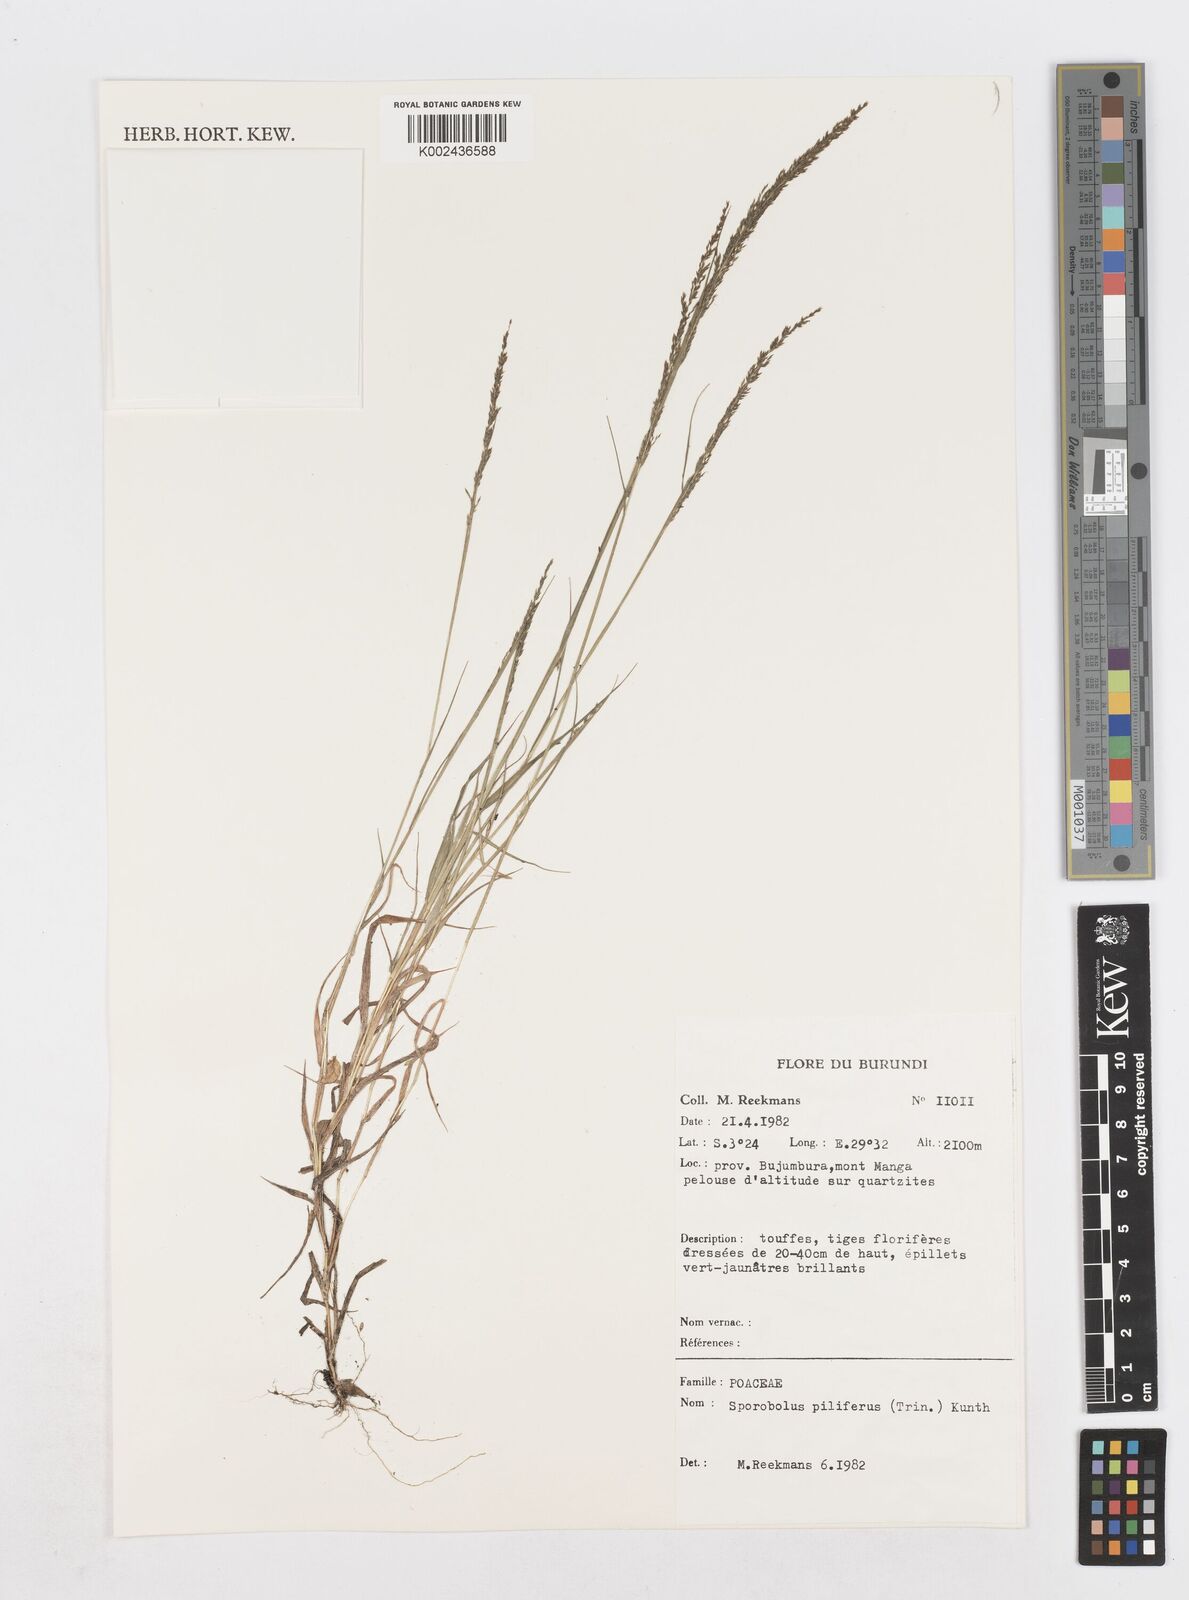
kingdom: Plantae
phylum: Tracheophyta
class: Liliopsida
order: Poales
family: Poaceae
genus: Sporobolus
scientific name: Sporobolus pilifer
